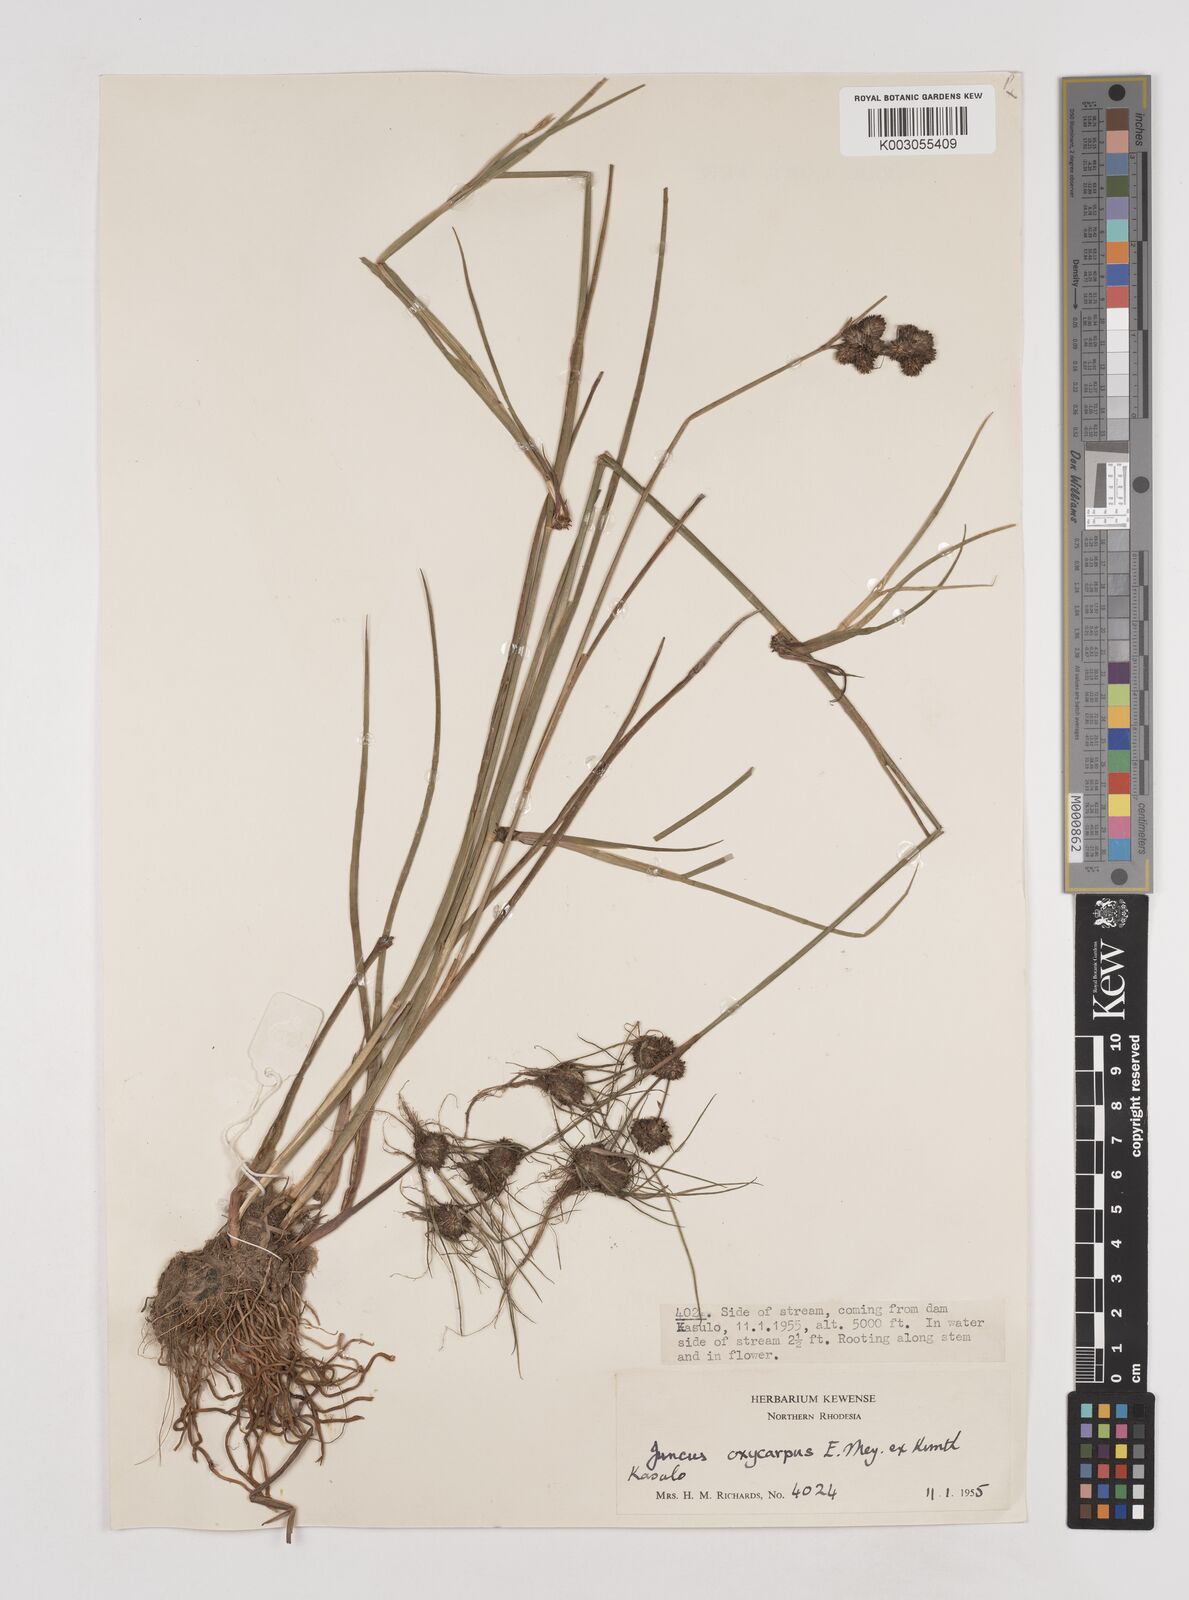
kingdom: Plantae
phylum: Tracheophyta
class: Liliopsida
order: Poales
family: Juncaceae
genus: Juncus
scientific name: Juncus oxycarpus
